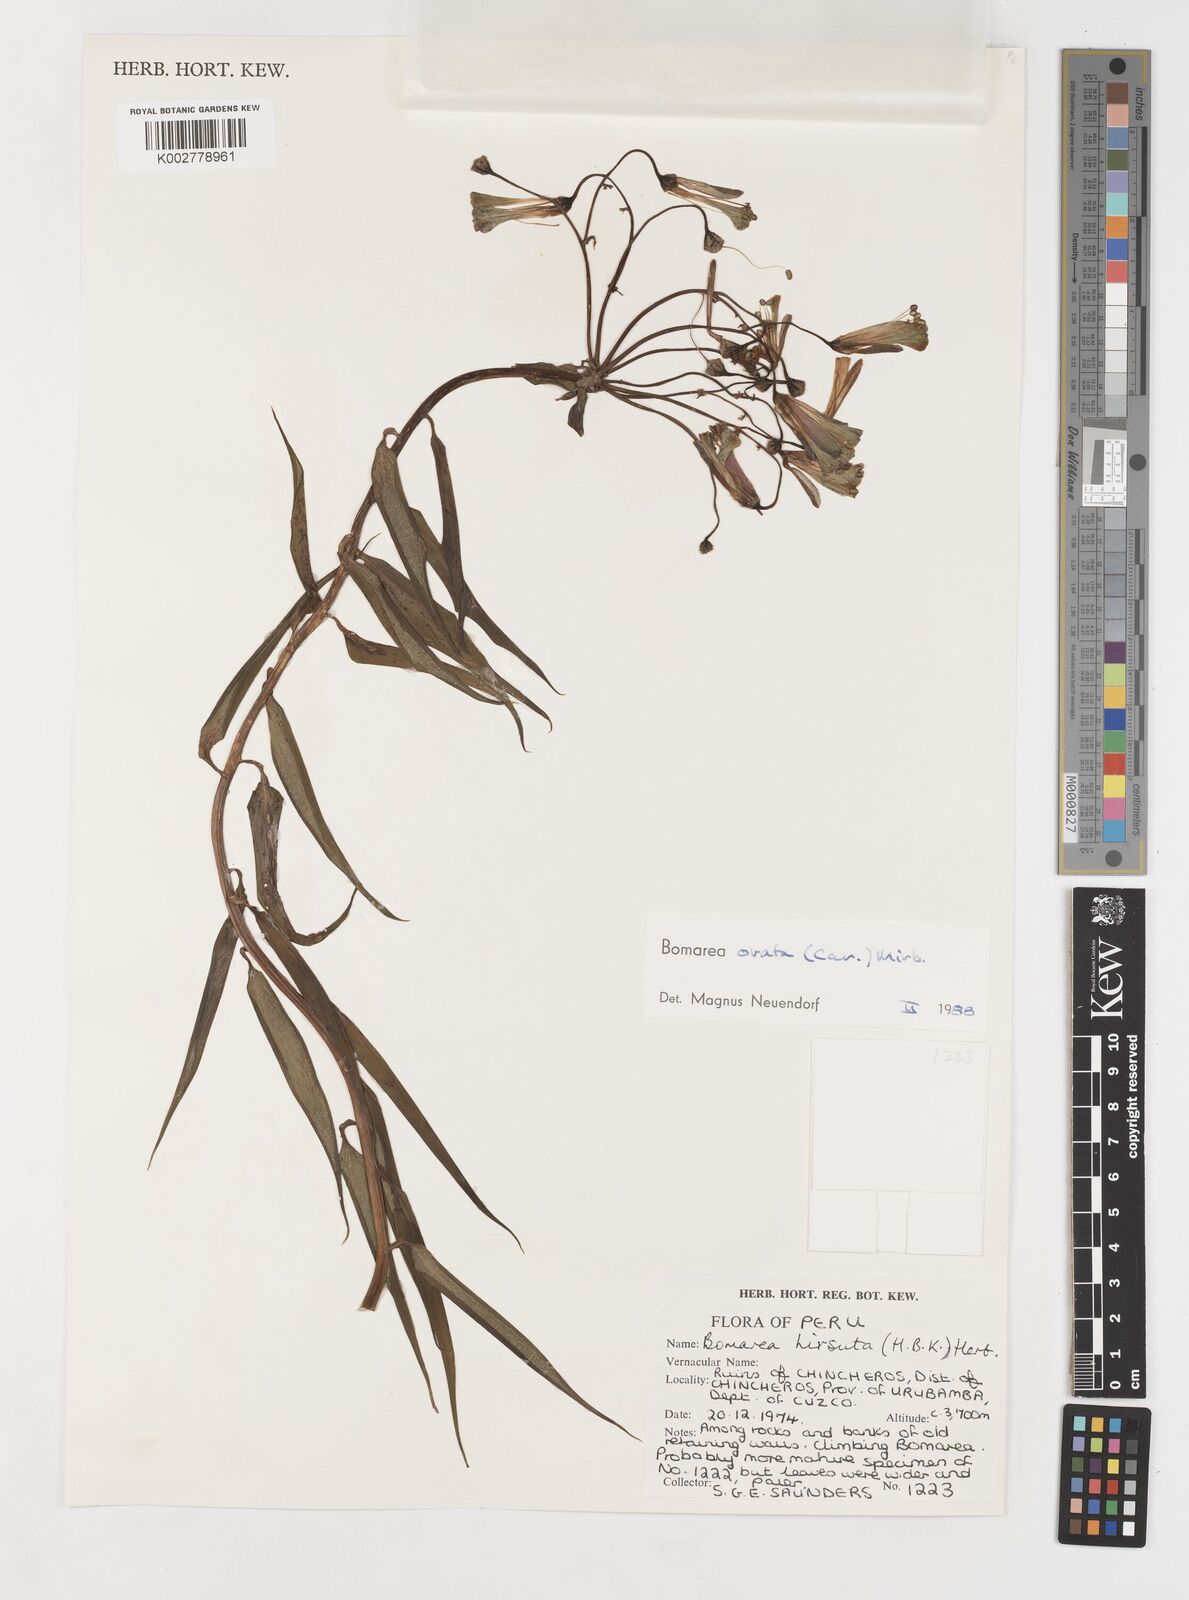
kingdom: Plantae
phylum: Tracheophyta
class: Liliopsida
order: Liliales
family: Alstroemeriaceae
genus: Bomarea
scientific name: Bomarea ovata
